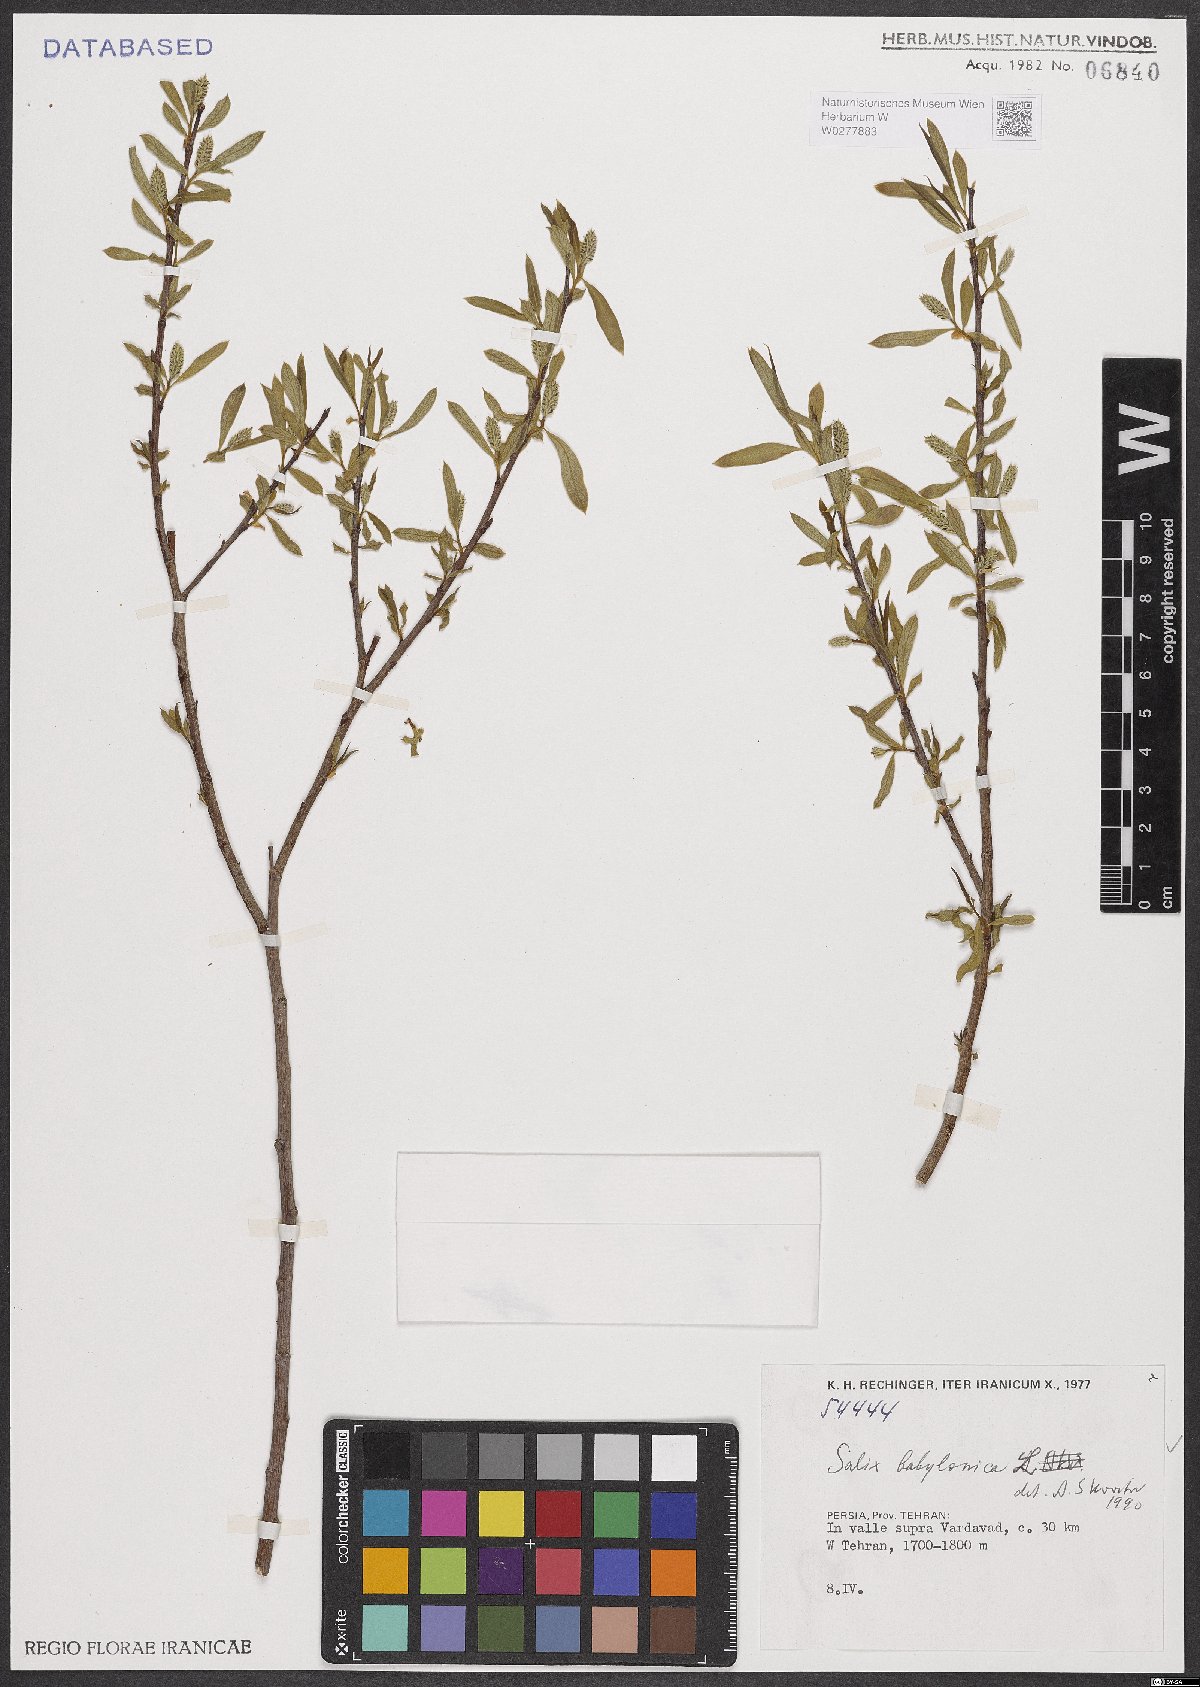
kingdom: Plantae
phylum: Tracheophyta
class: Magnoliopsida
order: Malpighiales
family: Salicaceae
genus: Salix
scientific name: Salix babylonica
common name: Weeping willow
